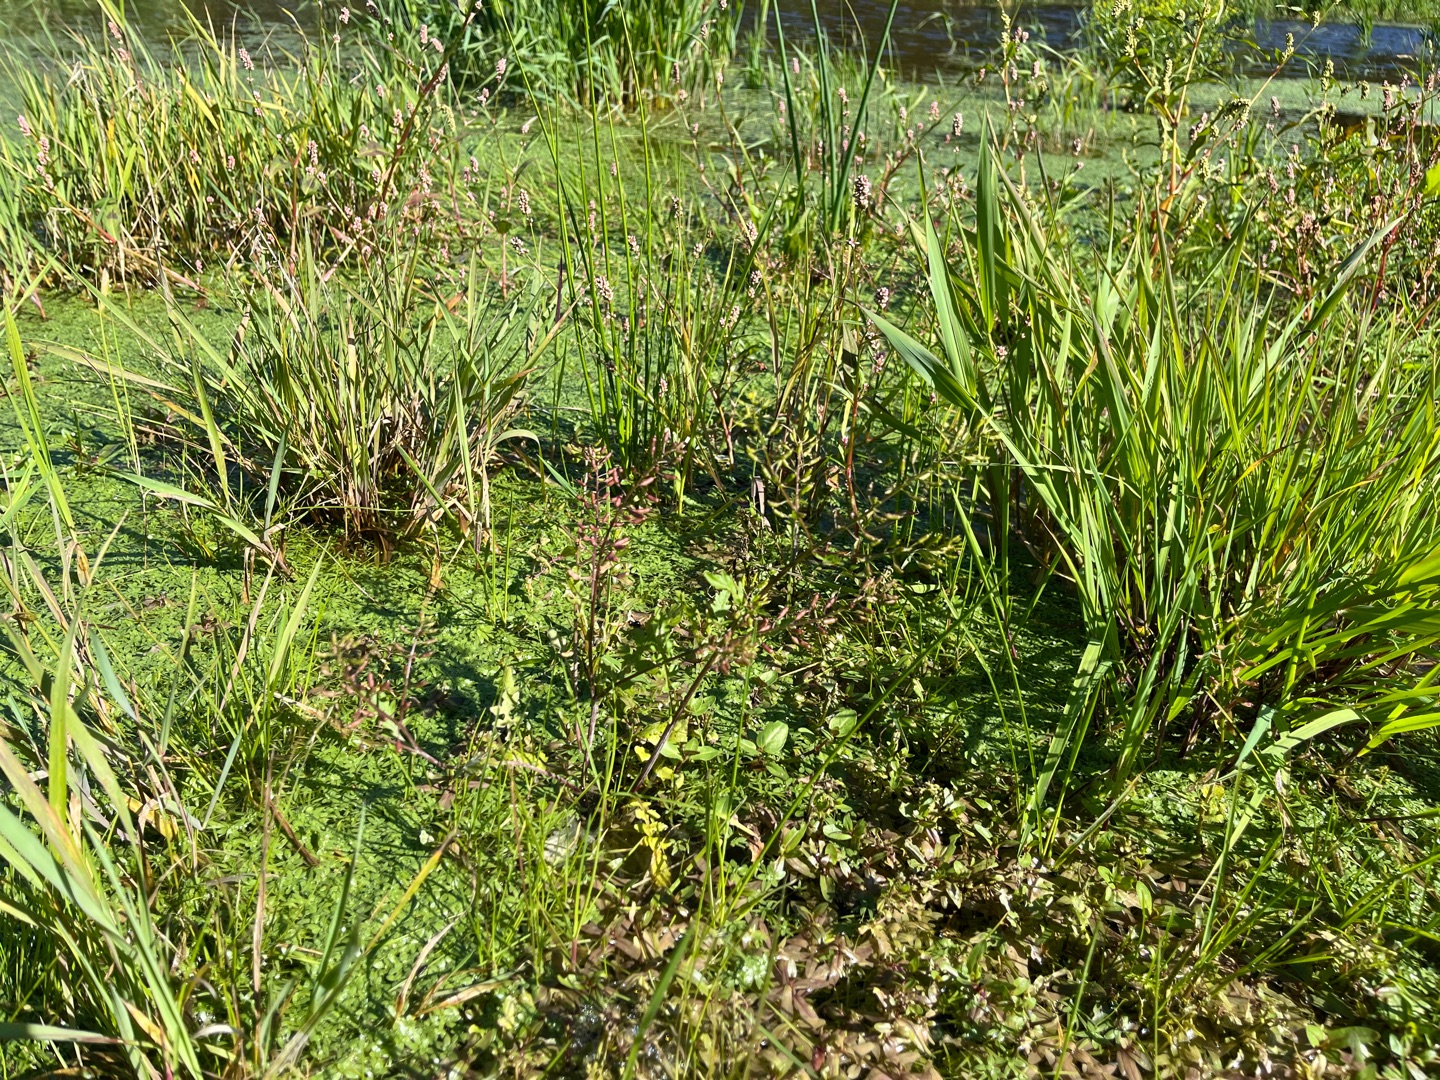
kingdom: Plantae
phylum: Tracheophyta
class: Magnoliopsida
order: Brassicales
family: Brassicaceae
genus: Rorippa
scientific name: Rorippa palustris
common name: Kær-guldkarse
